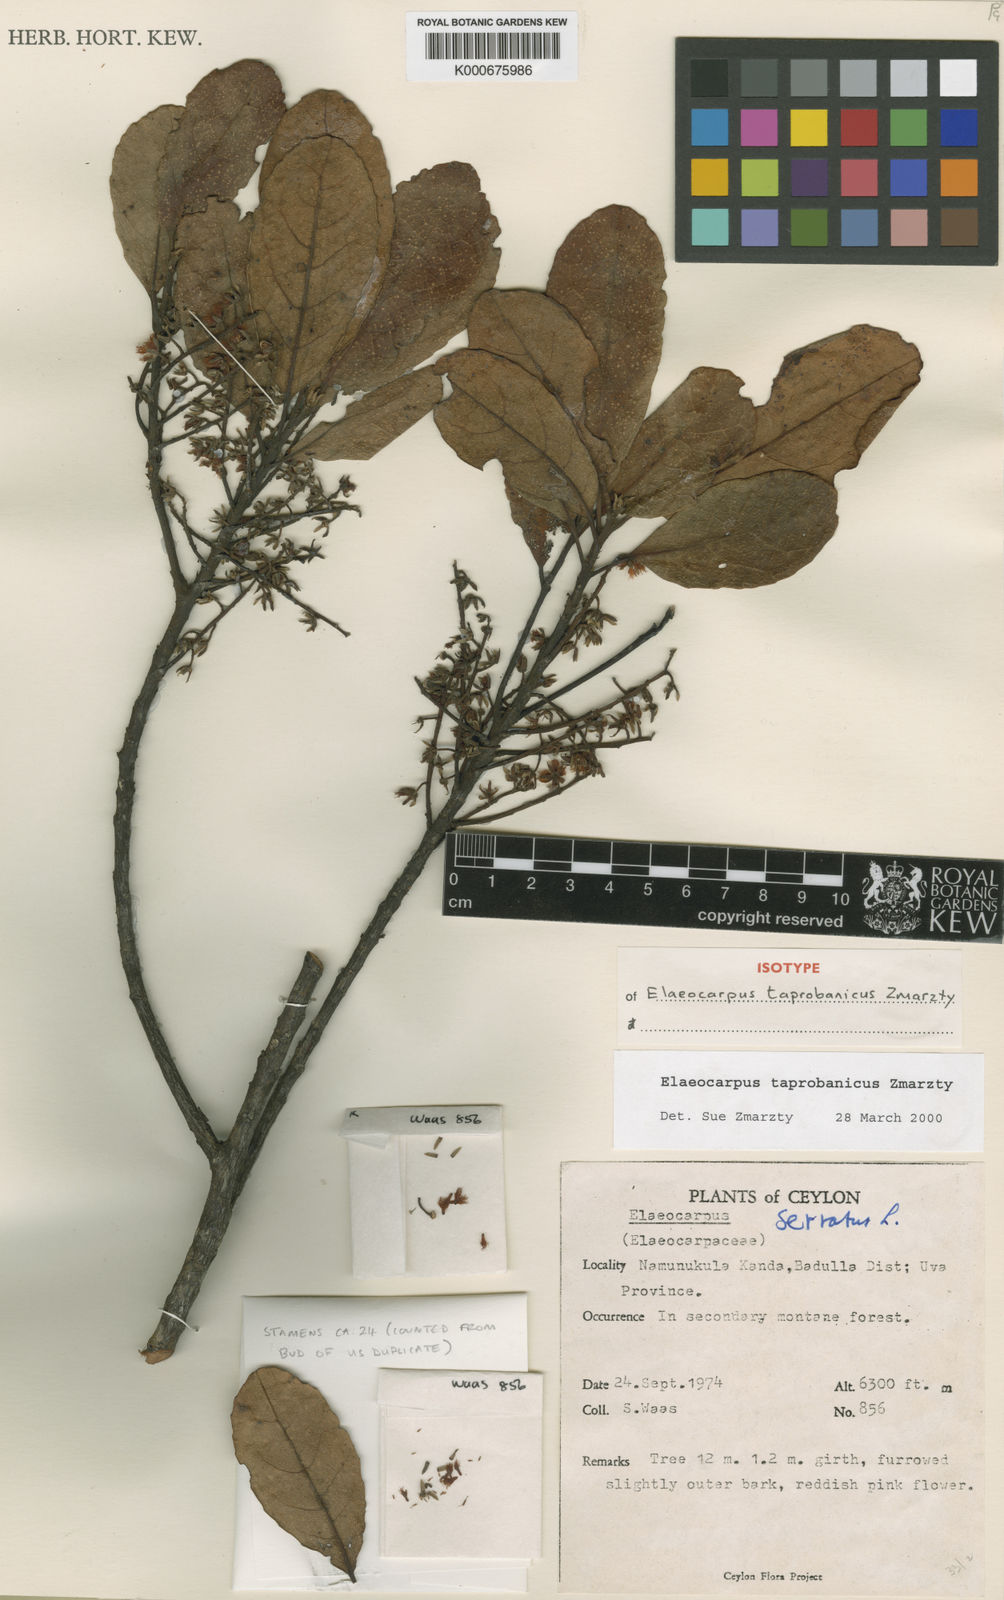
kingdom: Plantae
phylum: Tracheophyta
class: Magnoliopsida
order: Oxalidales
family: Elaeocarpaceae
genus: Elaeocarpus
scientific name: Elaeocarpus taprobanicus
